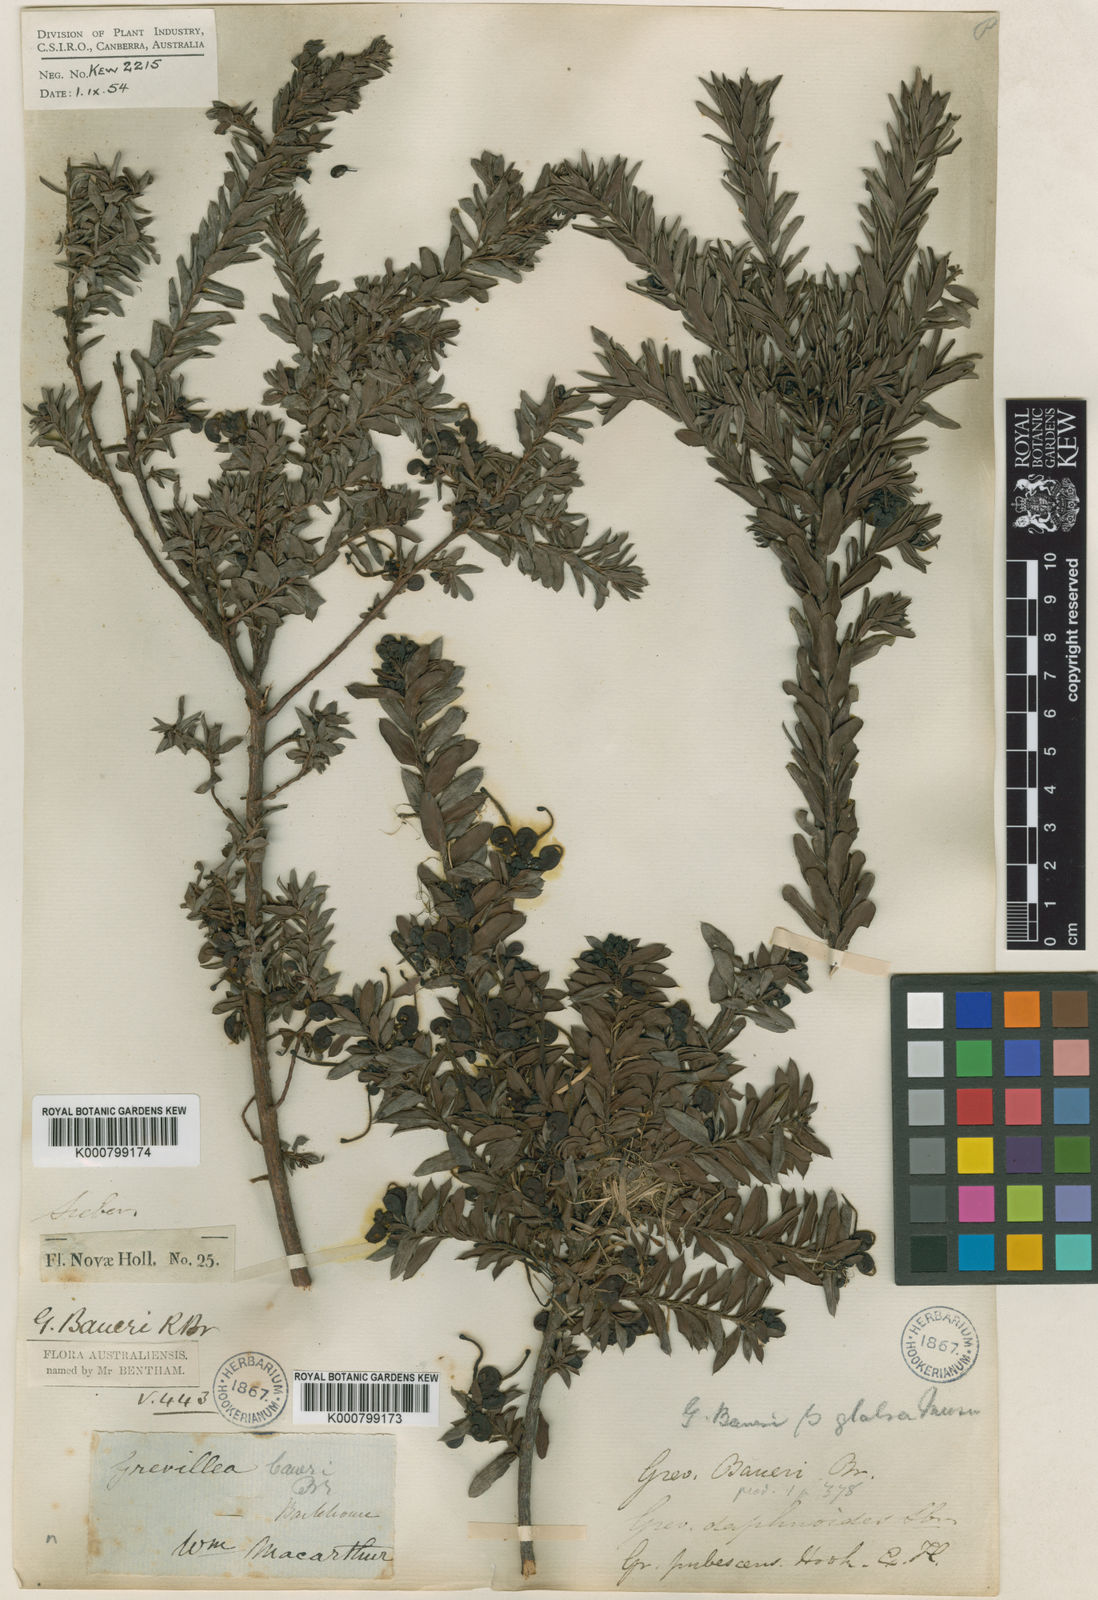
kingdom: Plantae
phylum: Tracheophyta
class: Magnoliopsida
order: Proteales
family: Proteaceae
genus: Grevillea
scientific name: Grevillea baueri
